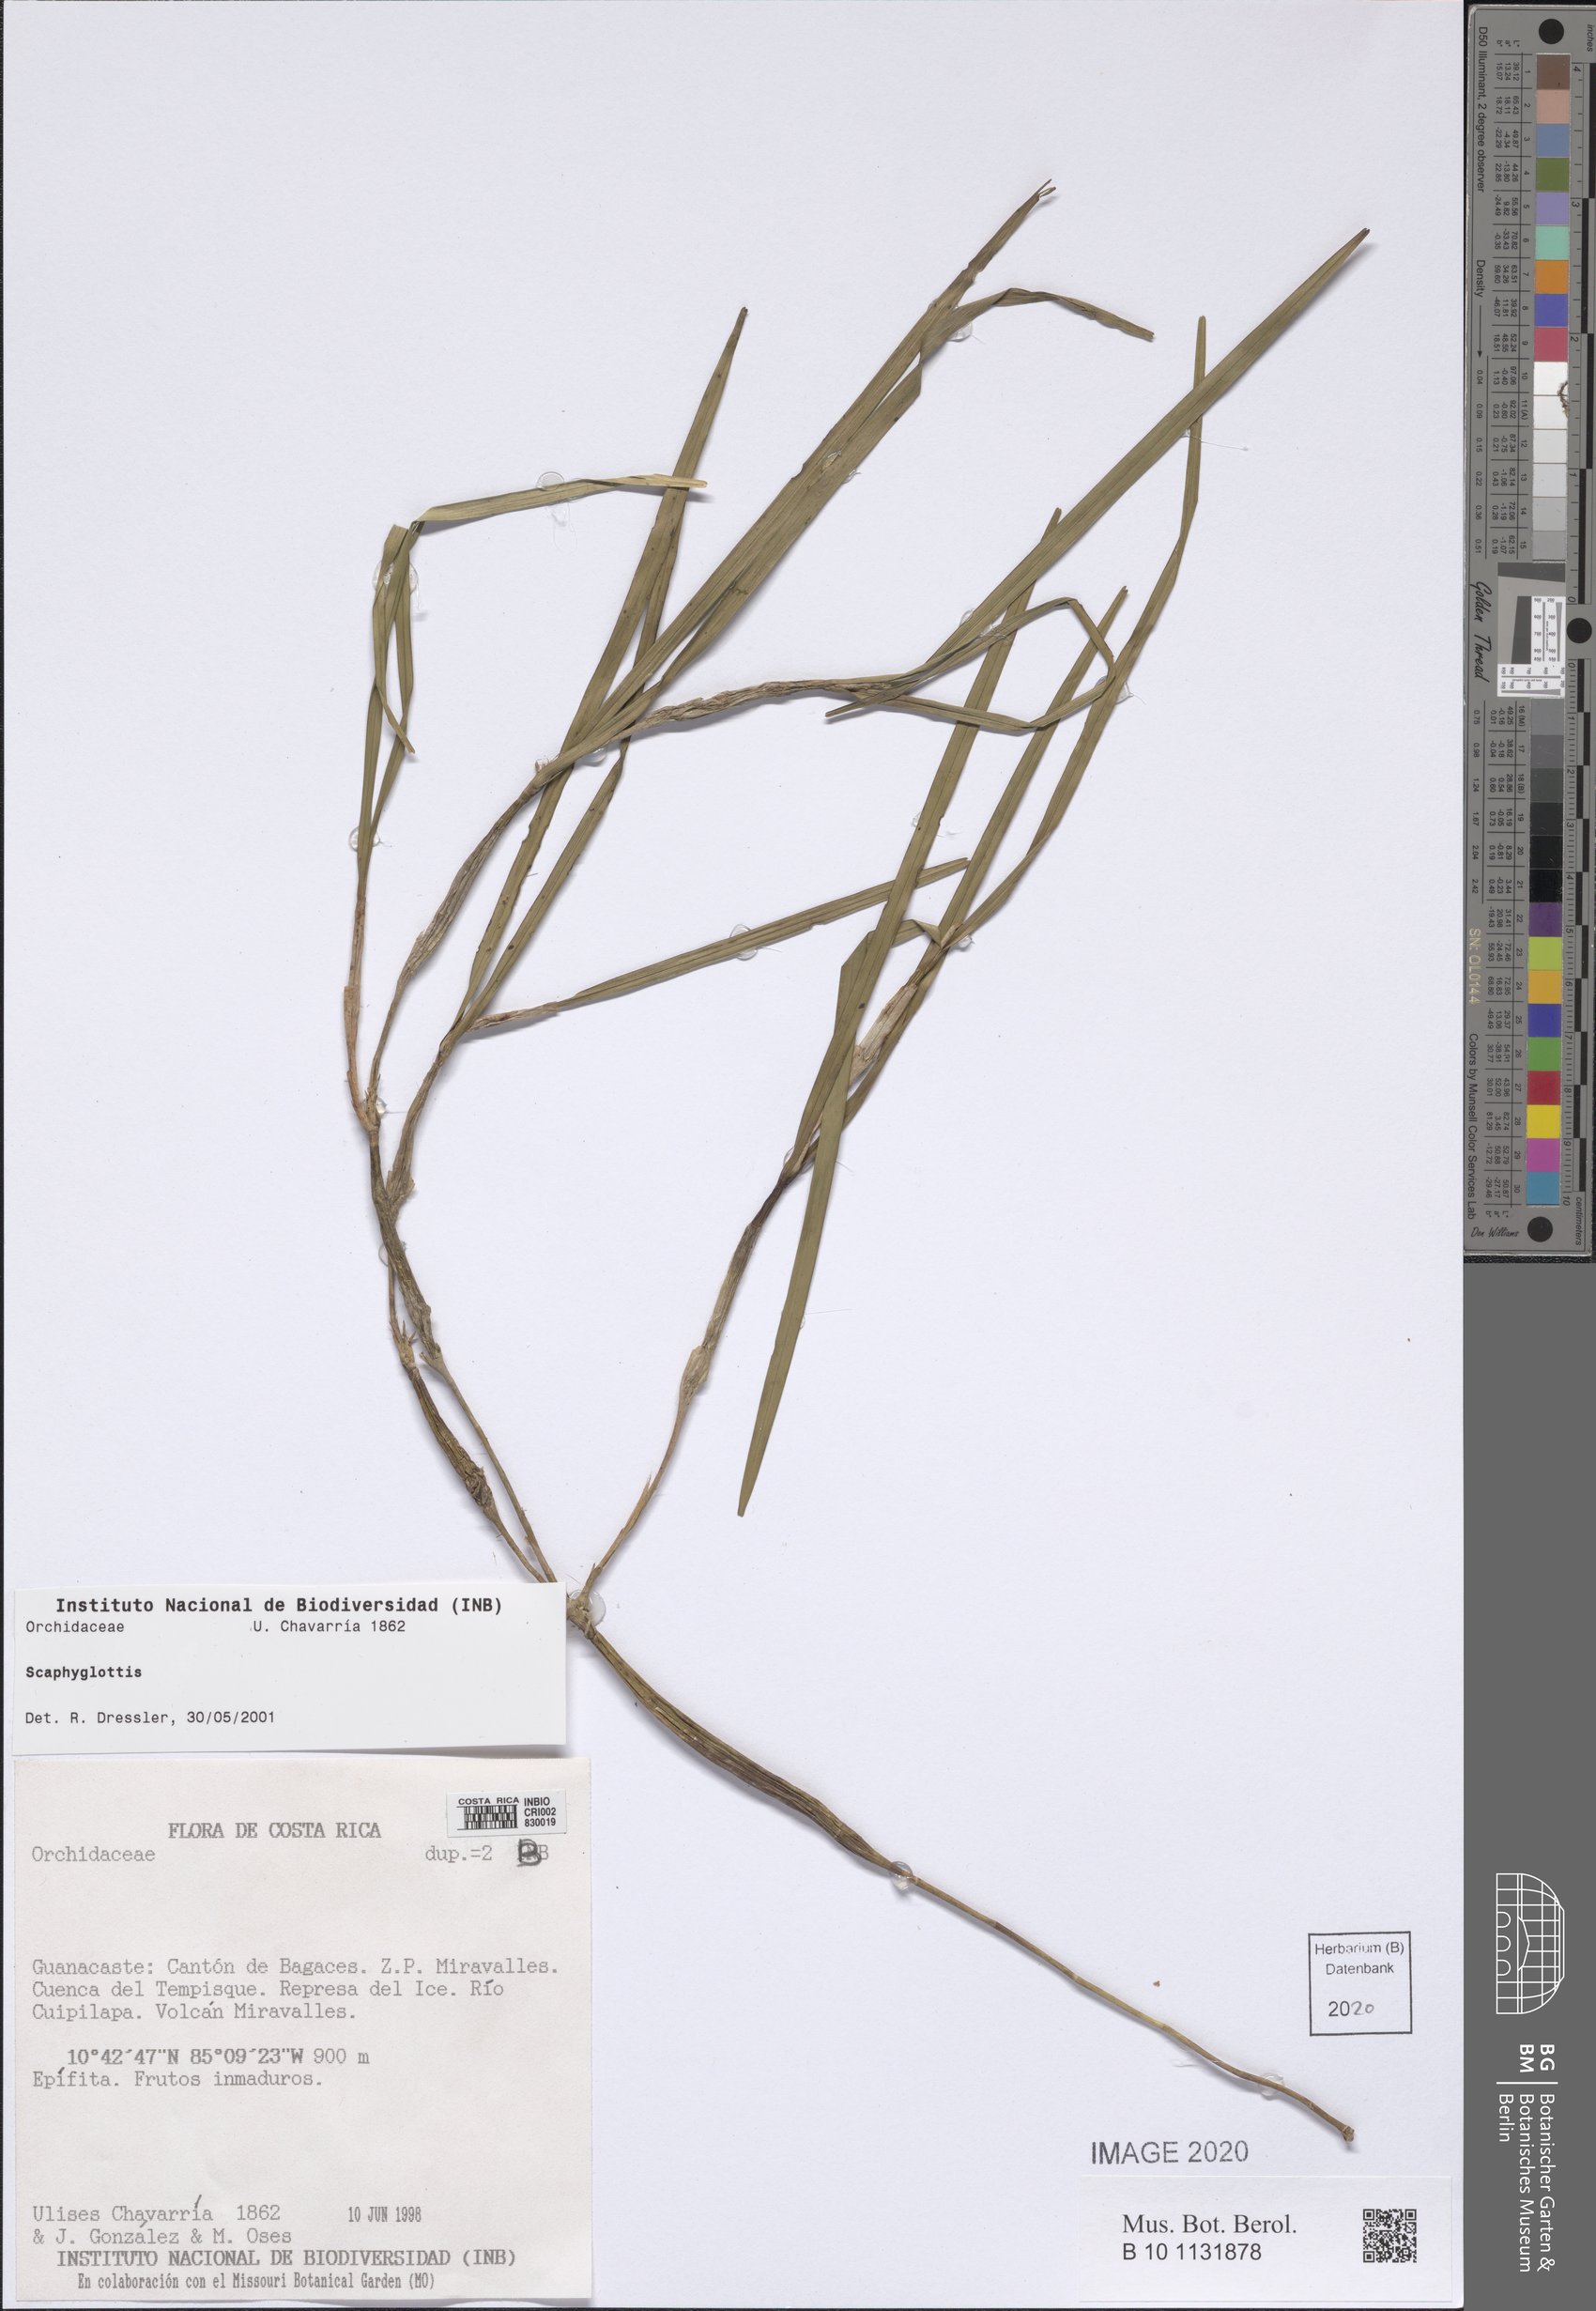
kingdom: Plantae
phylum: Tracheophyta
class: Liliopsida
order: Asparagales
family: Orchidaceae
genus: Scaphyglottis
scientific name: Scaphyglottis
